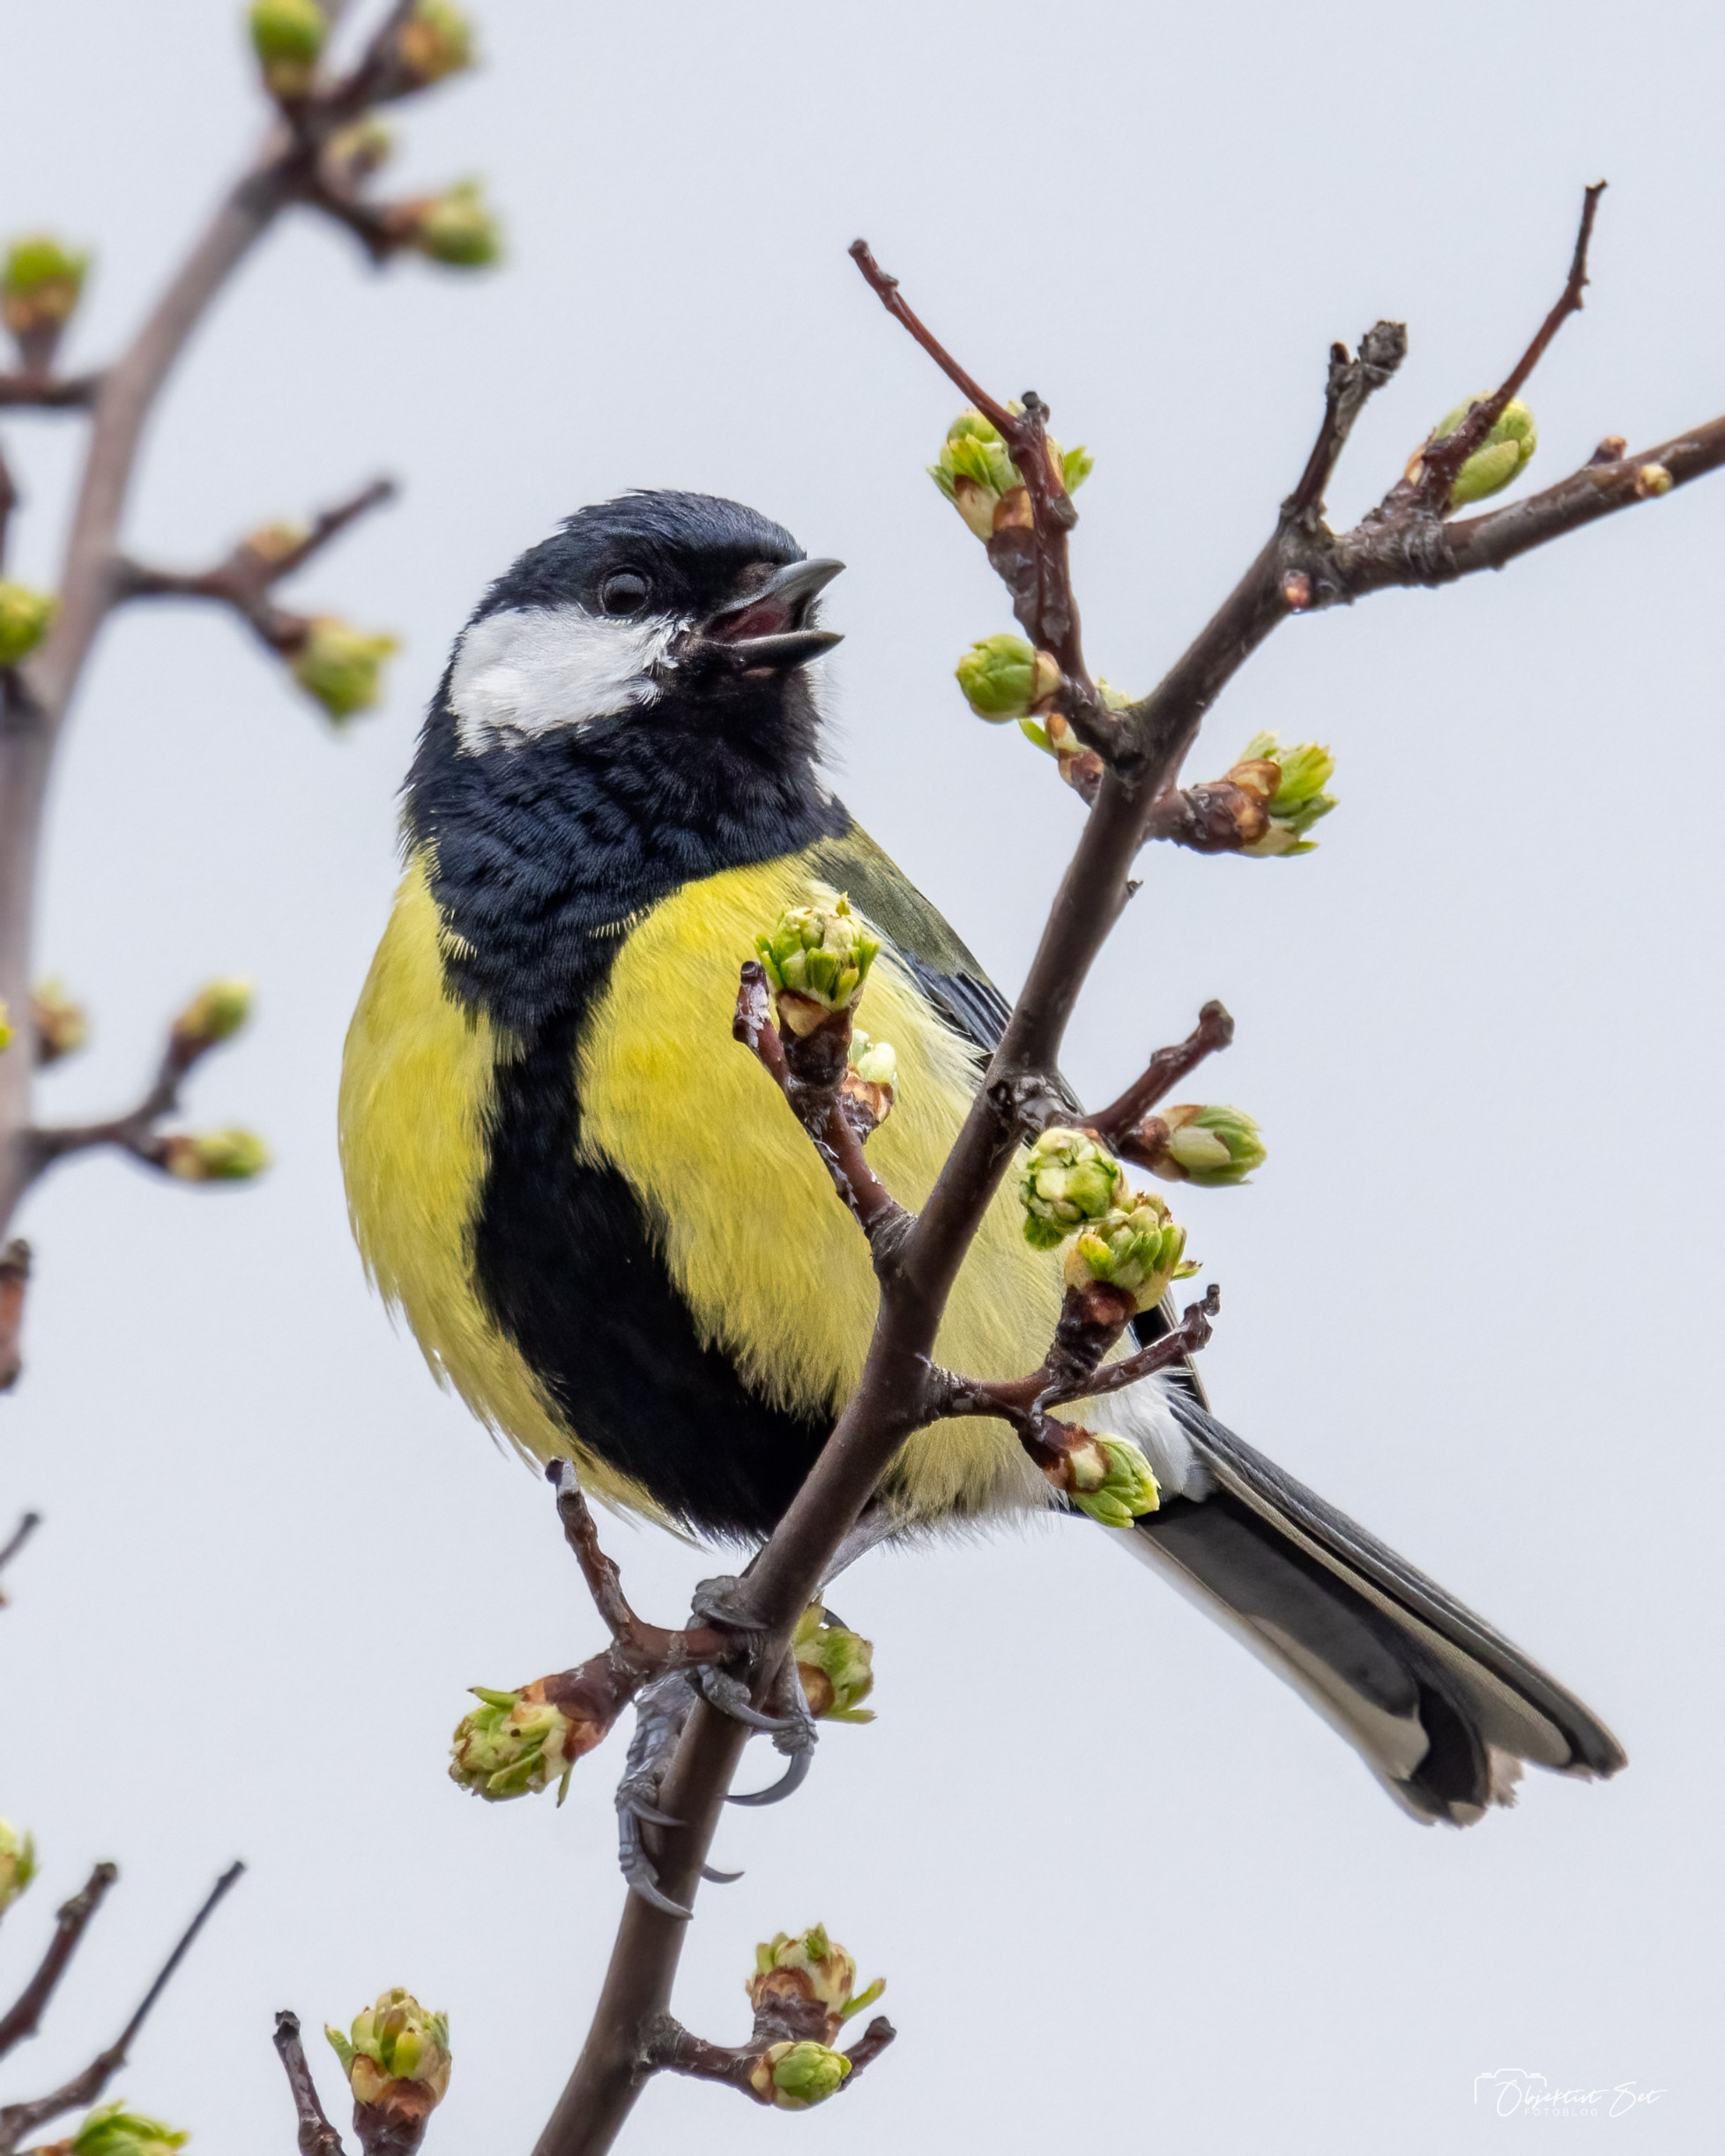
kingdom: Animalia
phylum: Chordata
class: Aves
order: Passeriformes
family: Paridae
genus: Parus
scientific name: Parus major
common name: Musvit
